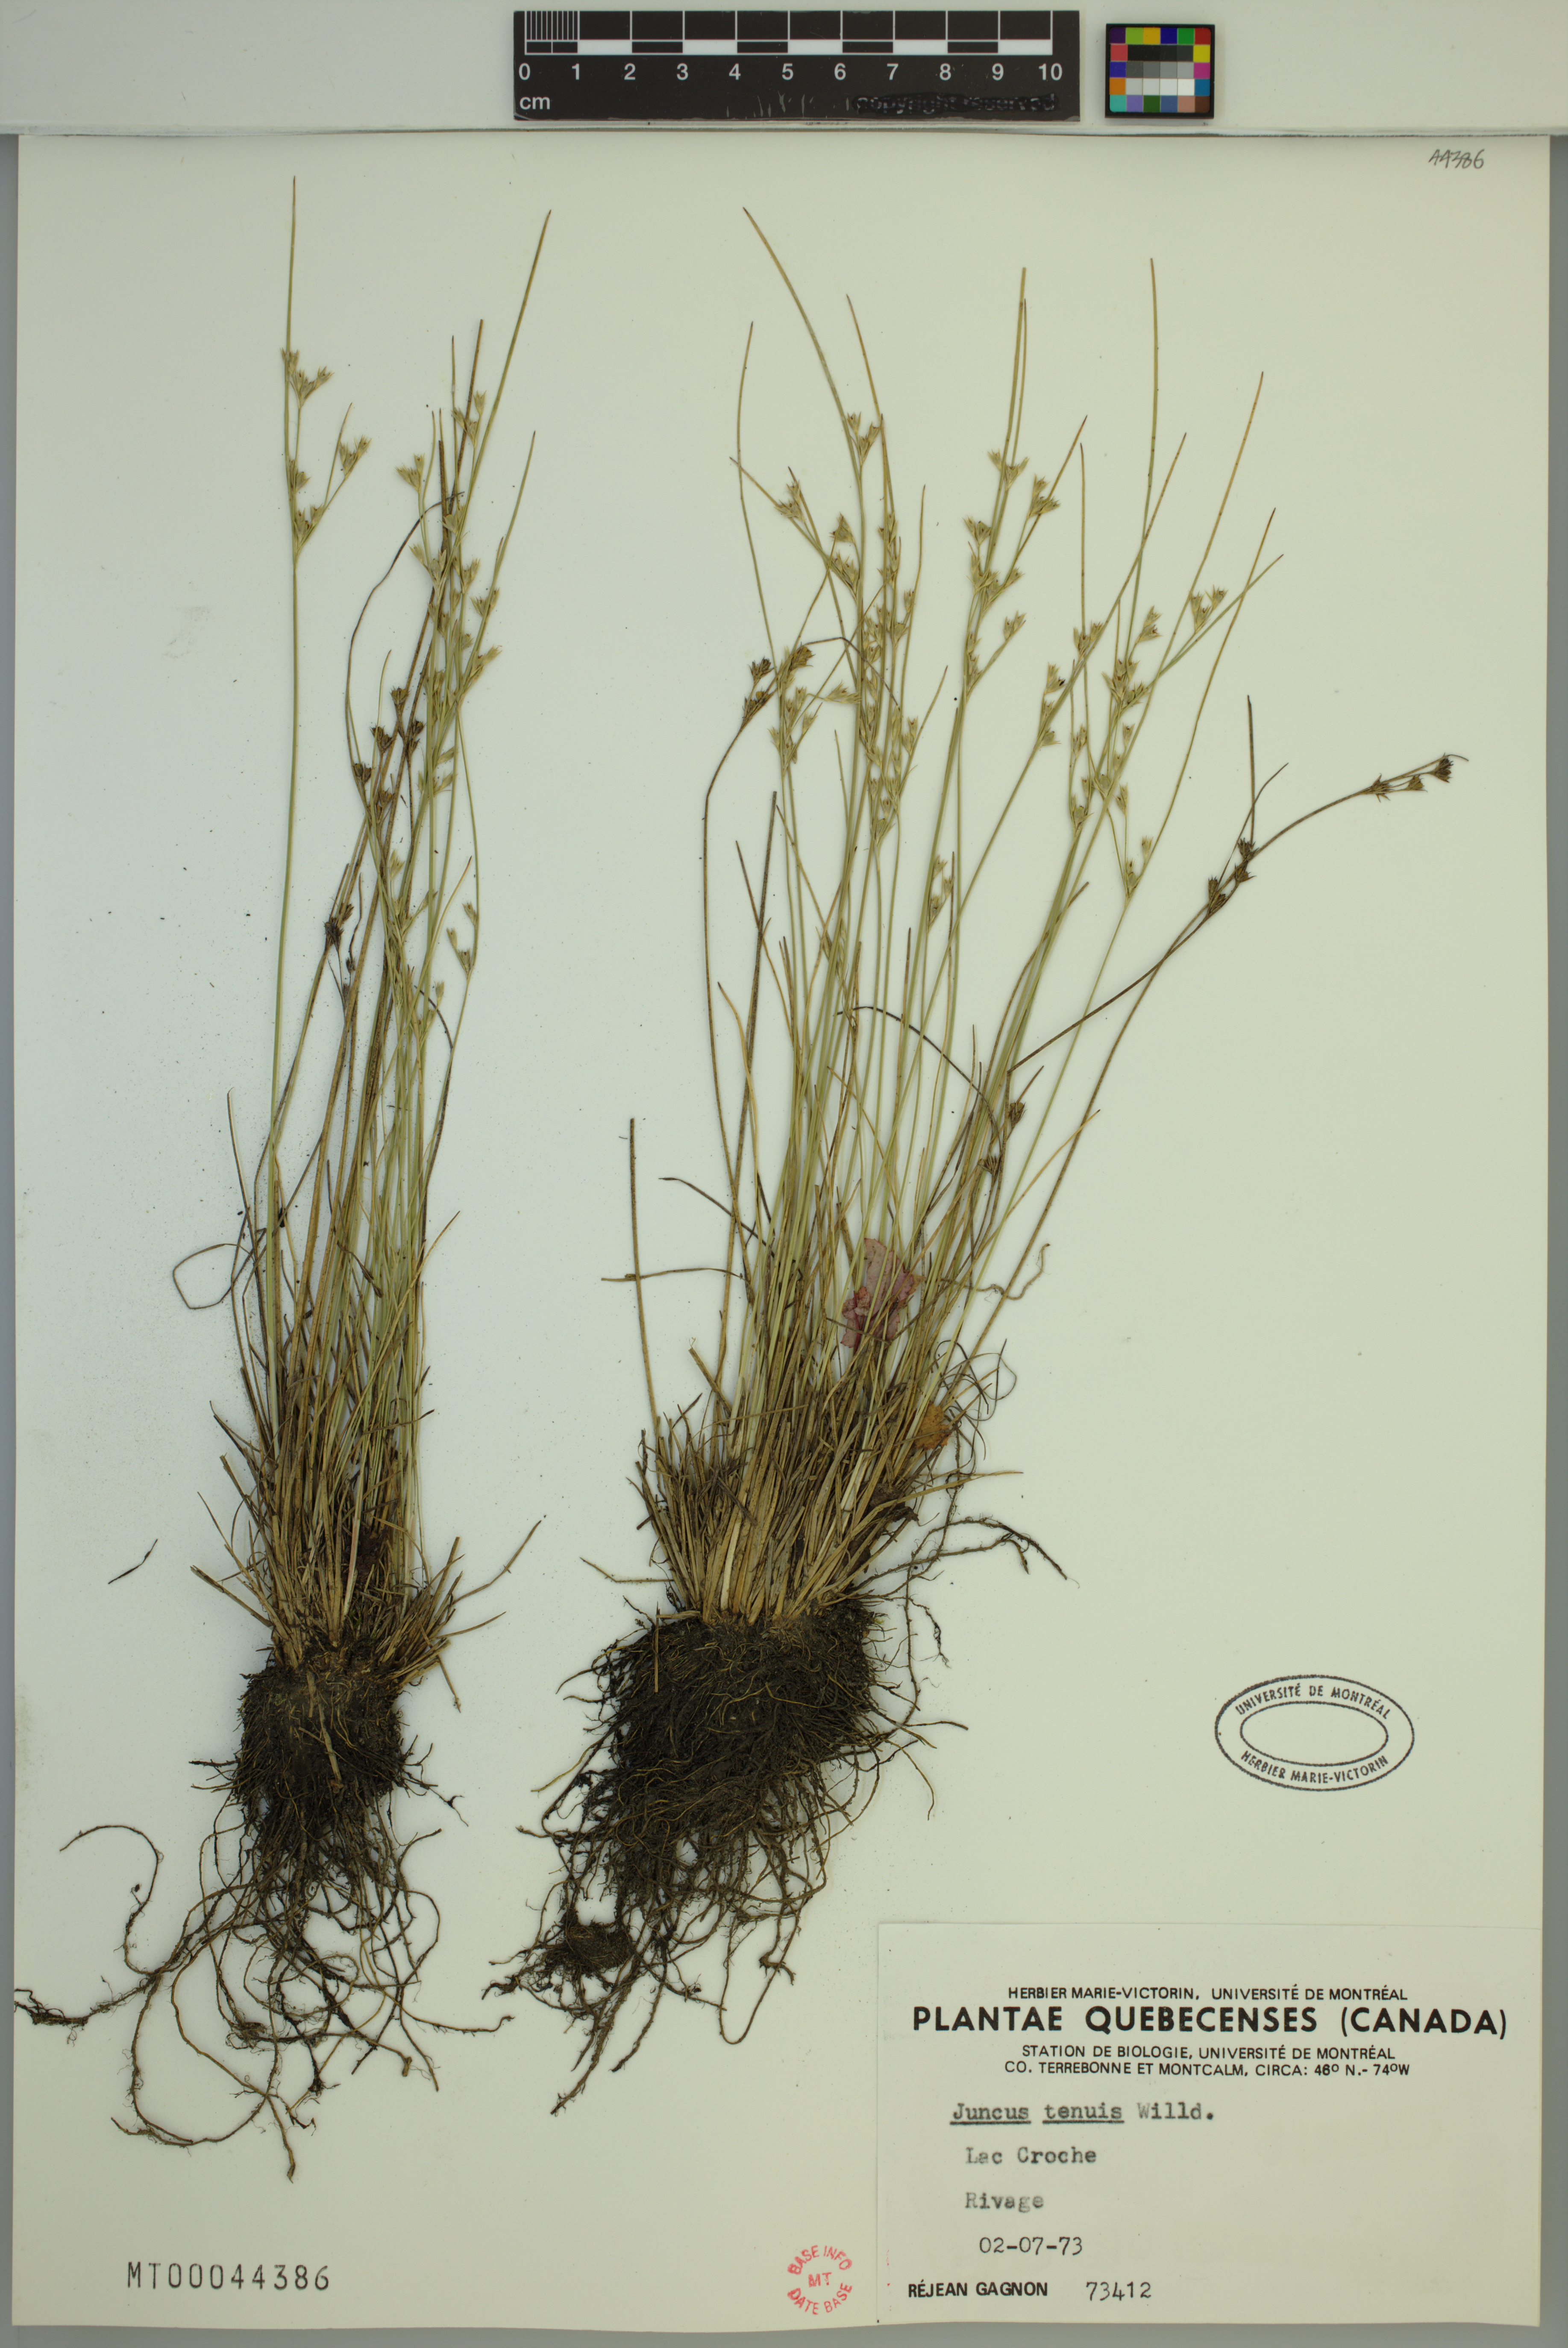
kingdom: Plantae
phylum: Tracheophyta
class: Liliopsida
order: Poales
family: Juncaceae
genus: Juncus
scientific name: Juncus tenuis
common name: Slender rush
